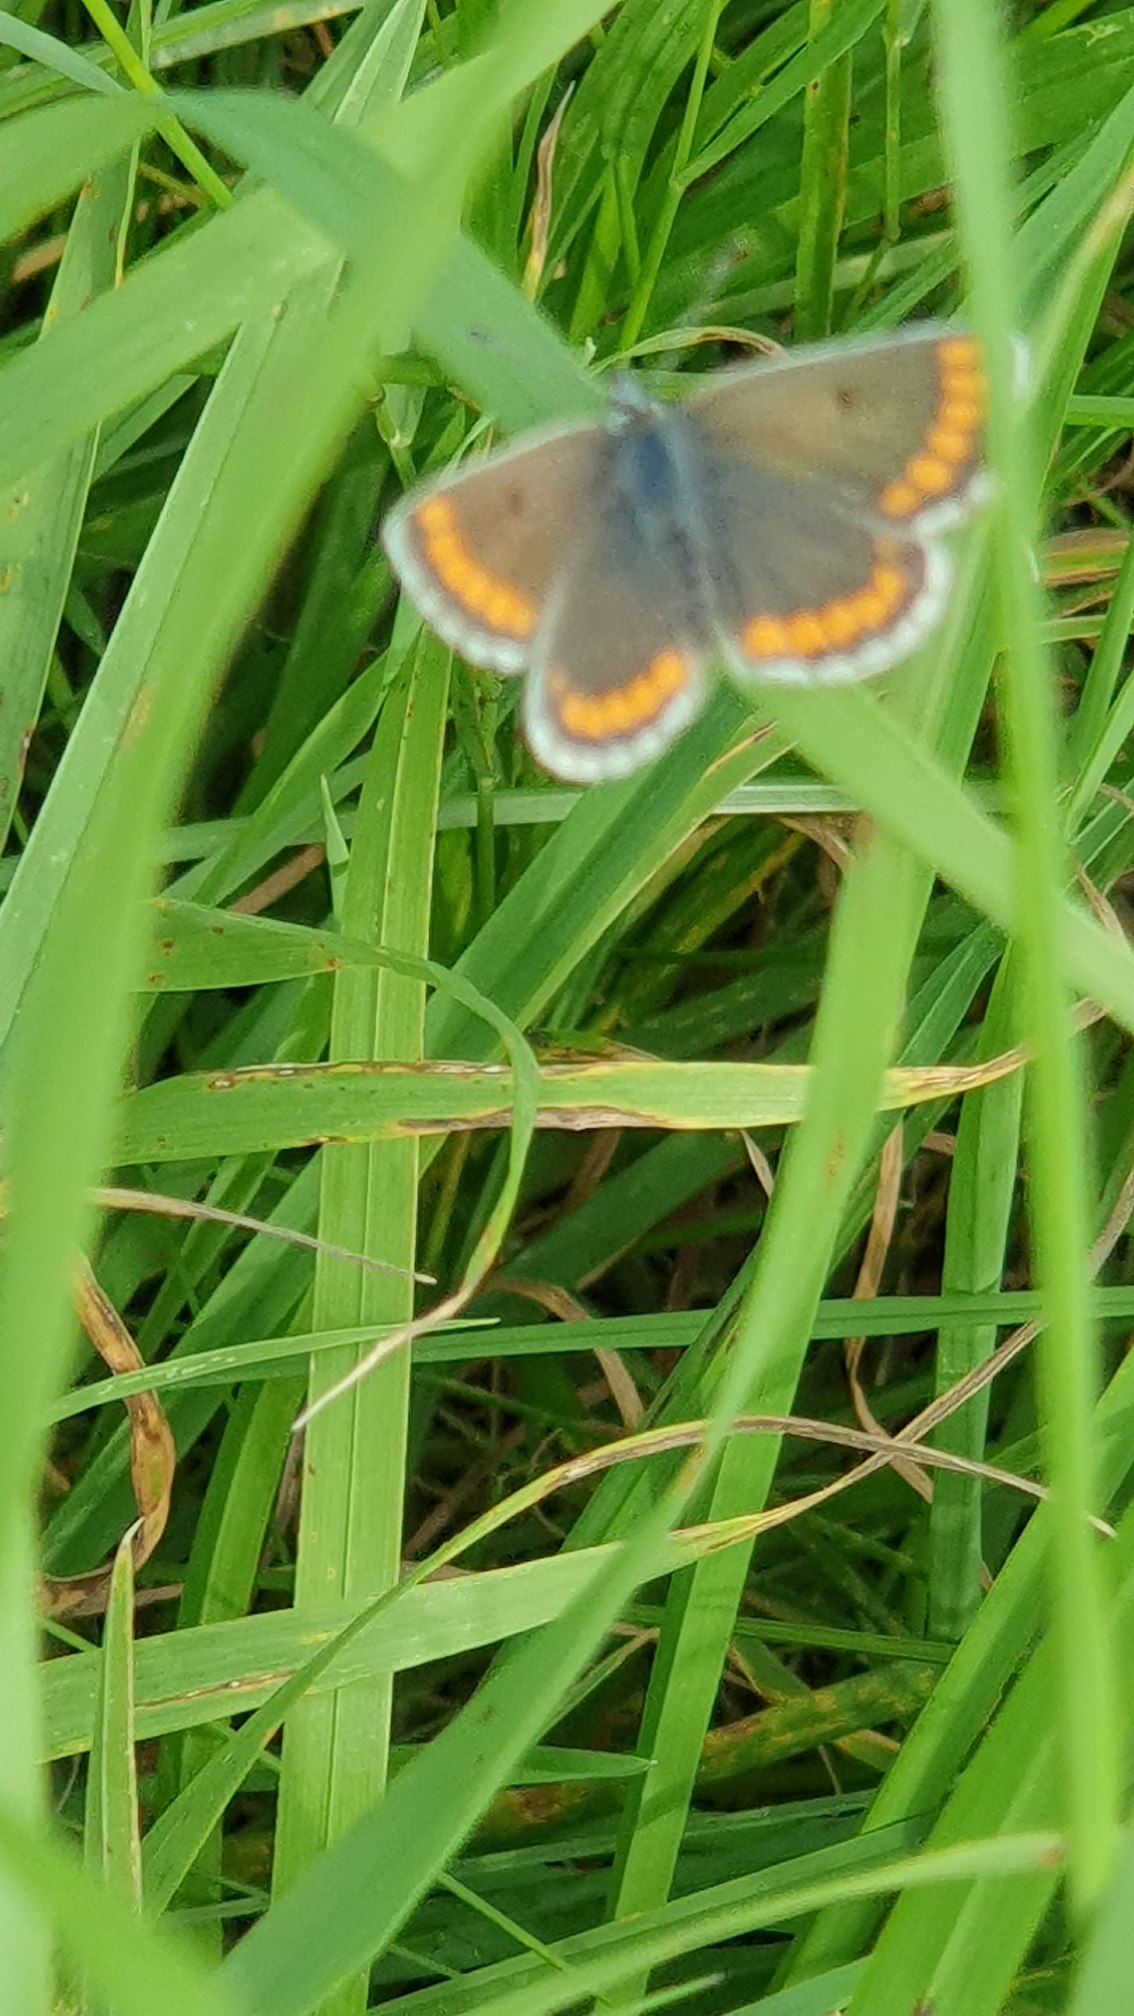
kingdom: Animalia
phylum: Arthropoda
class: Insecta
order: Lepidoptera
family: Lycaenidae
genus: Aricia
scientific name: Aricia agestis
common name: Rødplettet blåfugl
